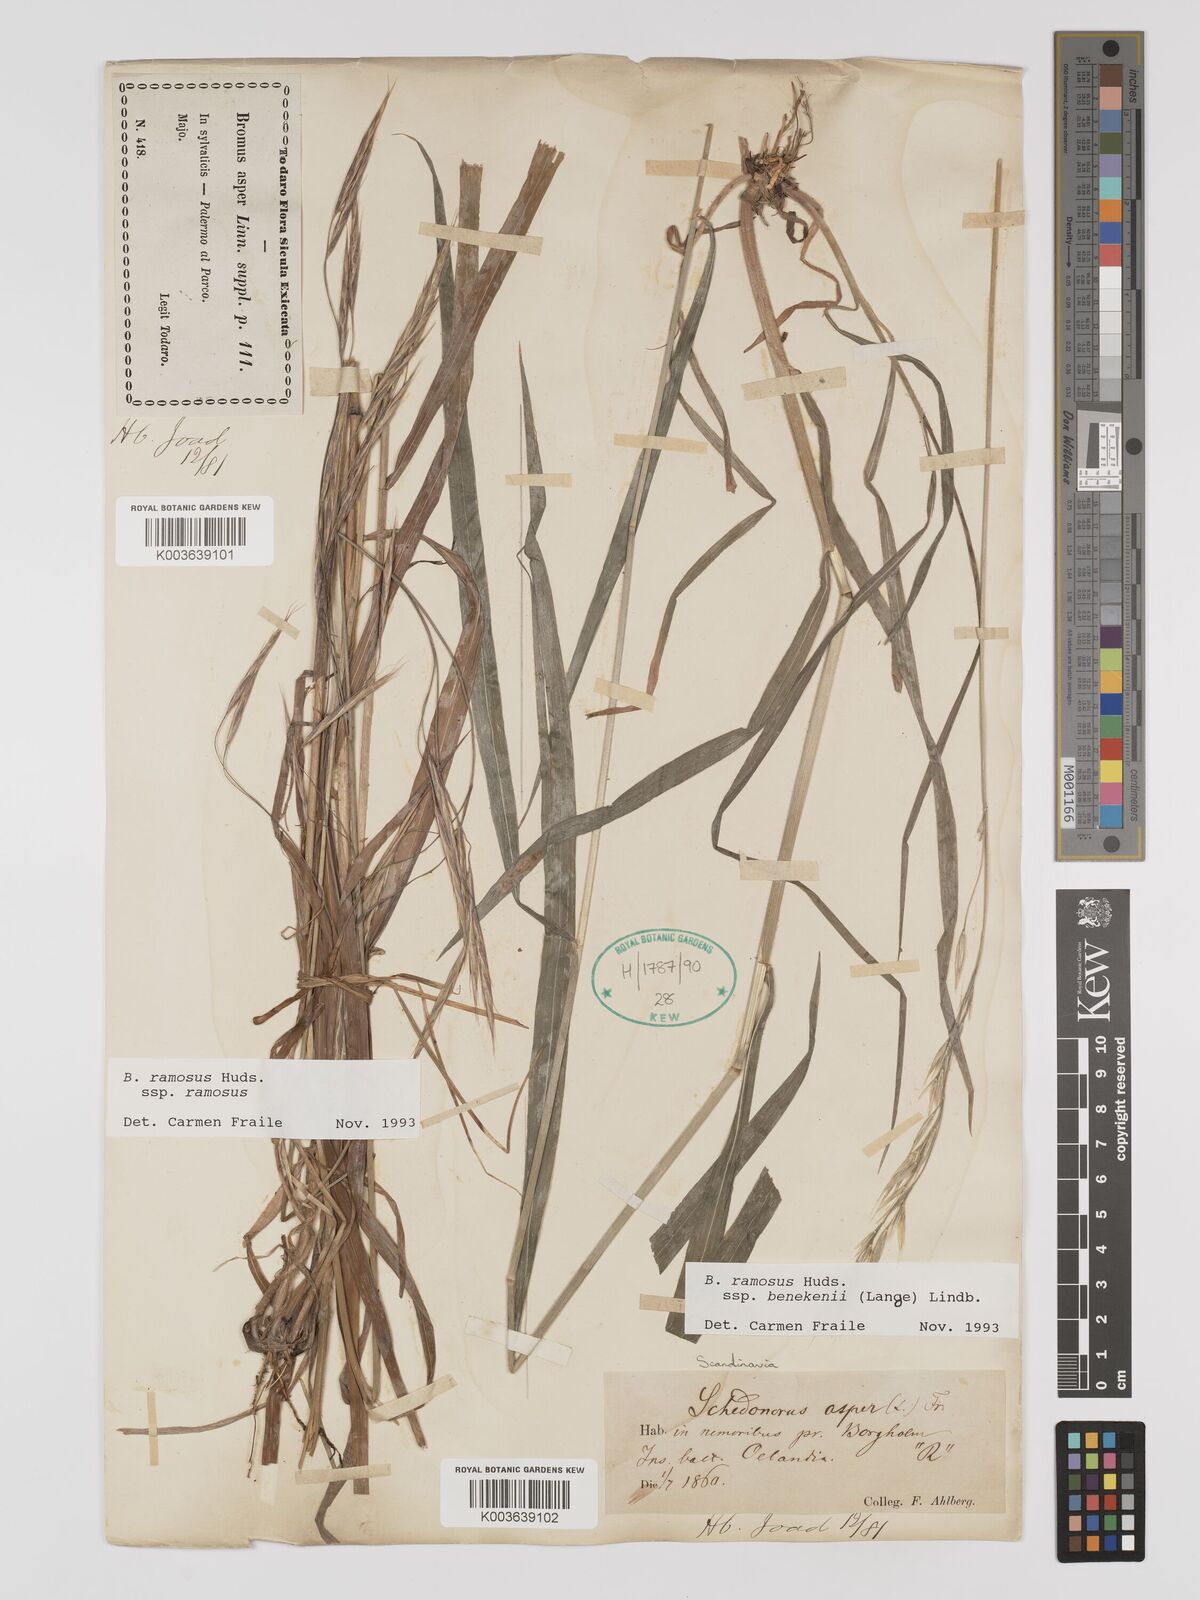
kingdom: Plantae
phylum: Tracheophyta
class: Liliopsida
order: Poales
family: Poaceae
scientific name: Poaceae
